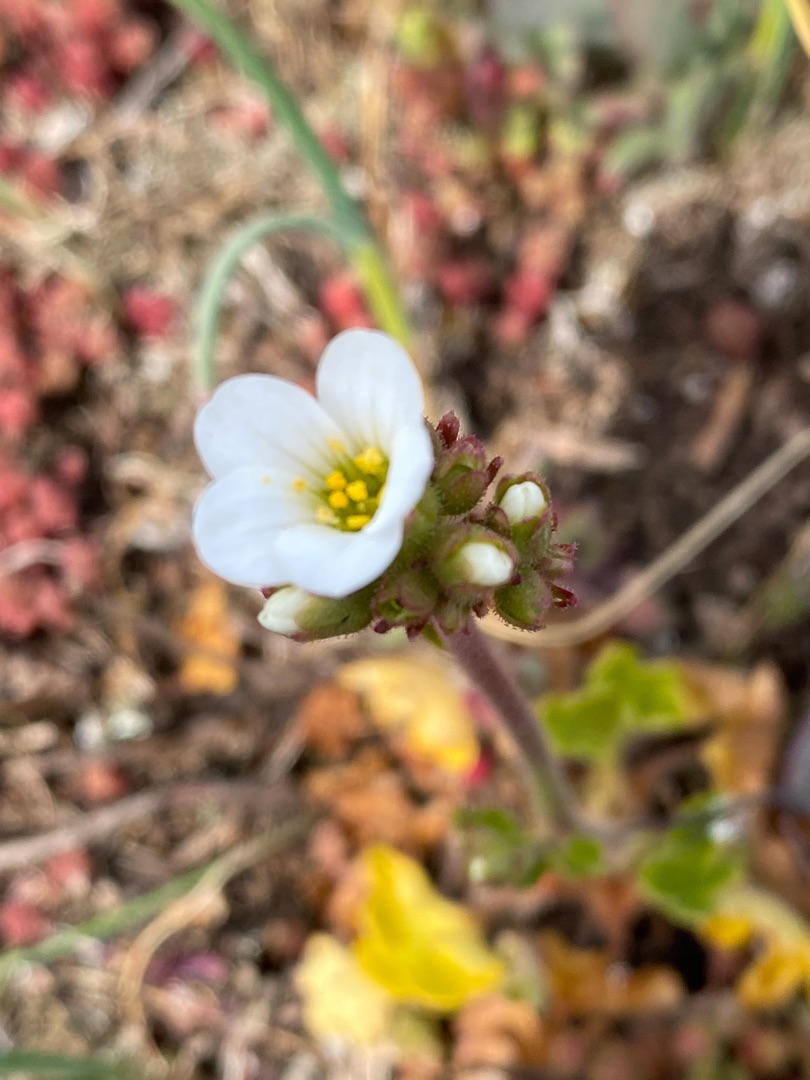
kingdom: Plantae
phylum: Tracheophyta
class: Magnoliopsida
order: Saxifragales
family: Saxifragaceae
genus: Saxifraga
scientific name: Saxifraga granulata
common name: Kornet stenbræk
